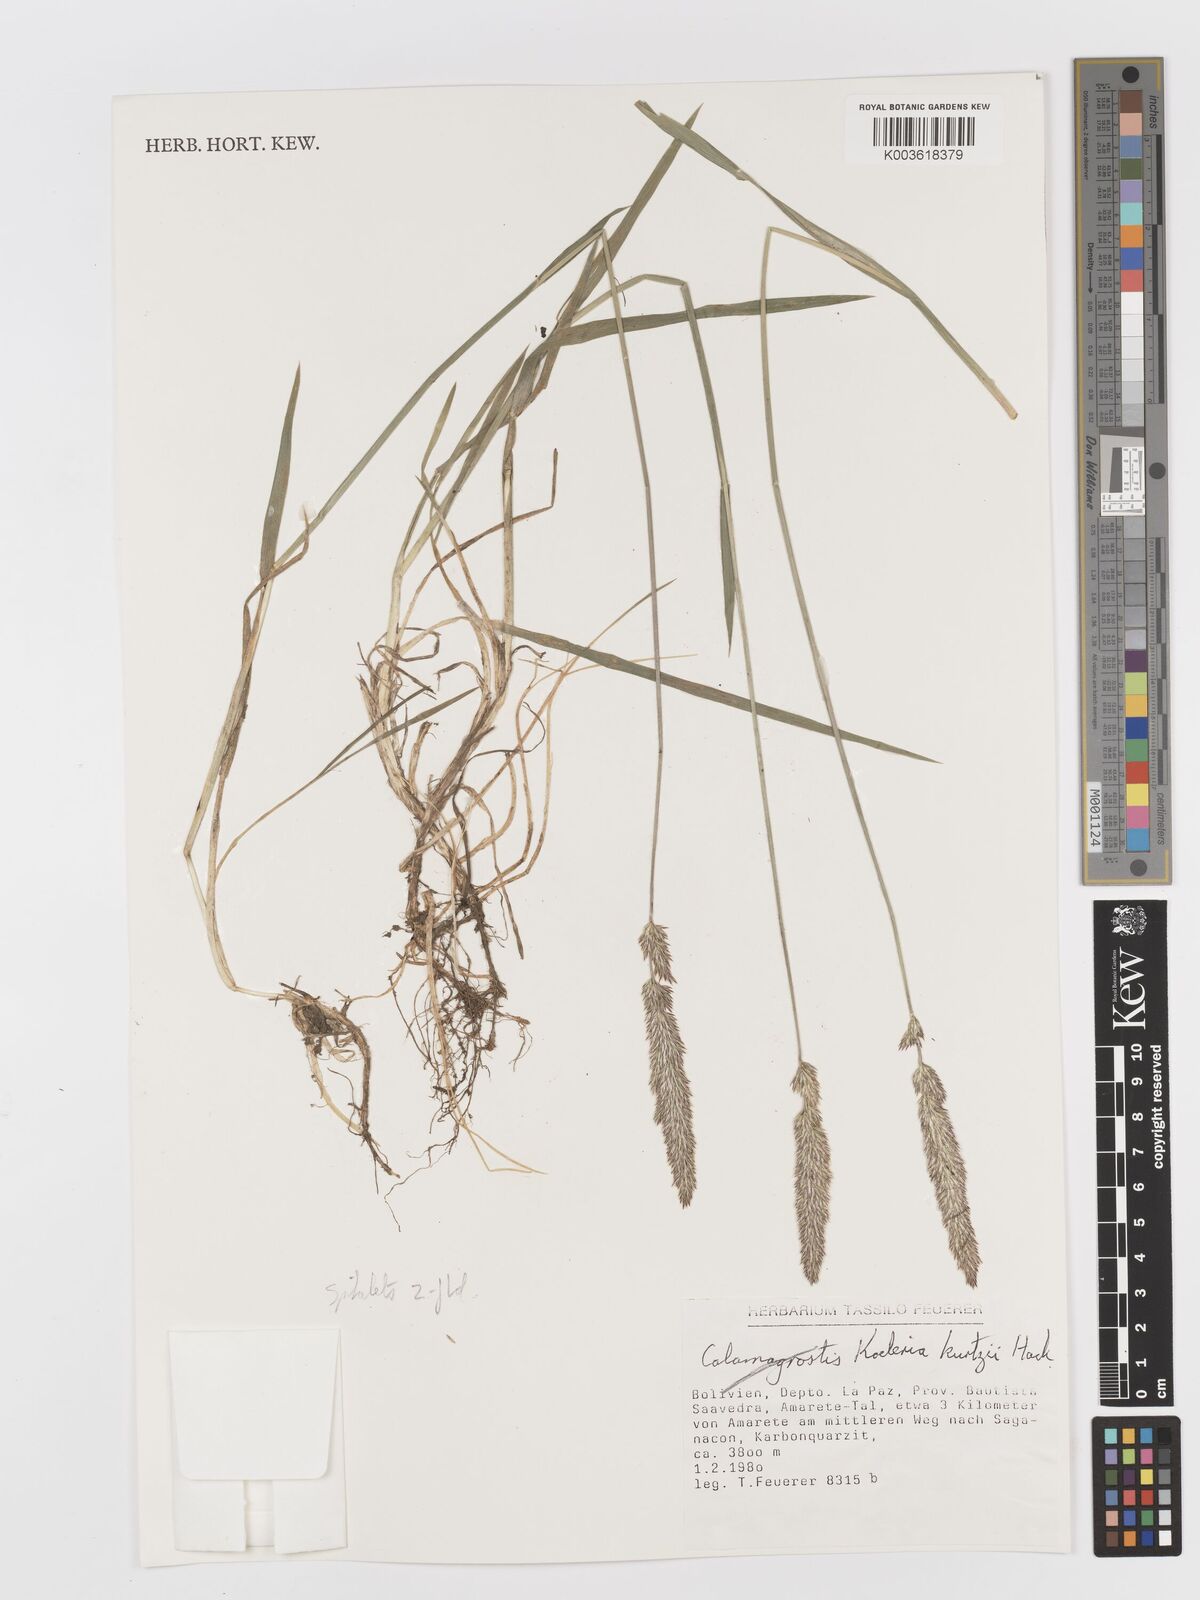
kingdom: Plantae
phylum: Tracheophyta
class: Liliopsida
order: Poales
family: Poaceae
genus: Koeleria
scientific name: Koeleria kurtzii
